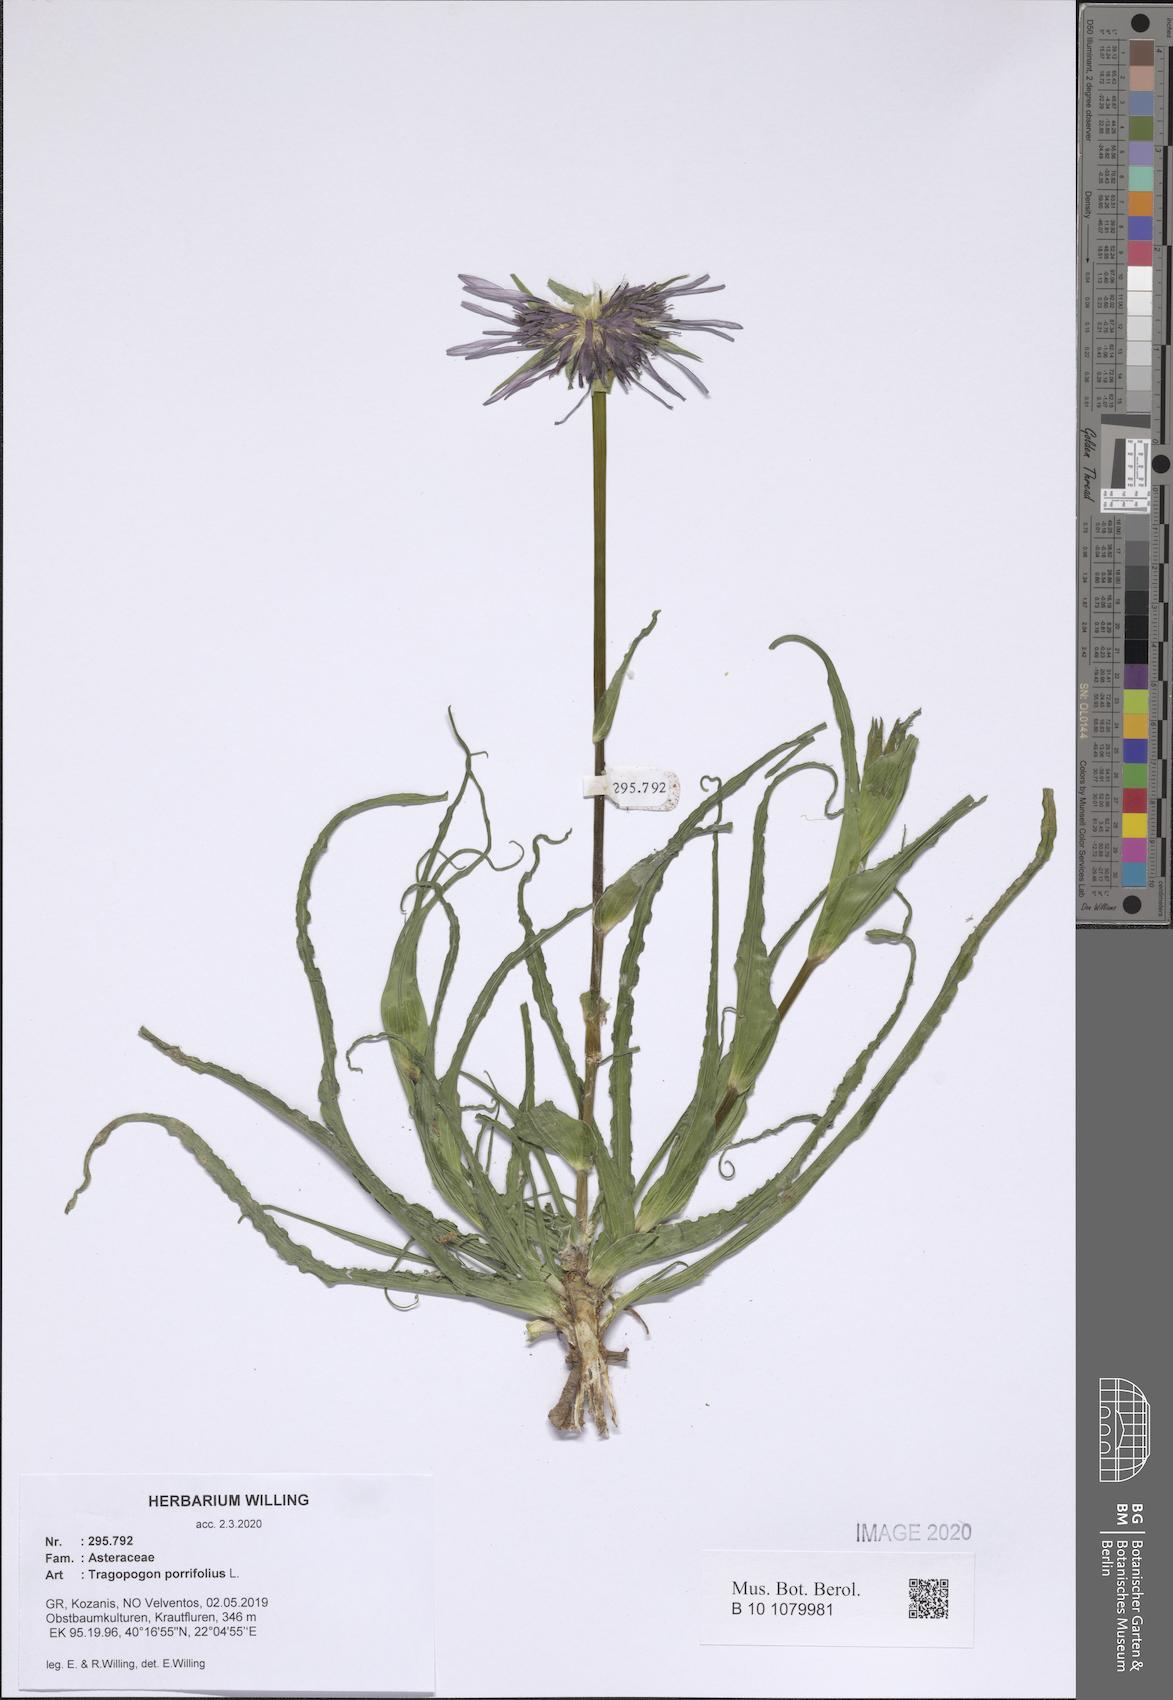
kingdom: Plantae
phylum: Tracheophyta
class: Magnoliopsida
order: Asterales
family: Asteraceae
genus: Tragopogon
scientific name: Tragopogon porrifolius
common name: Salsify
